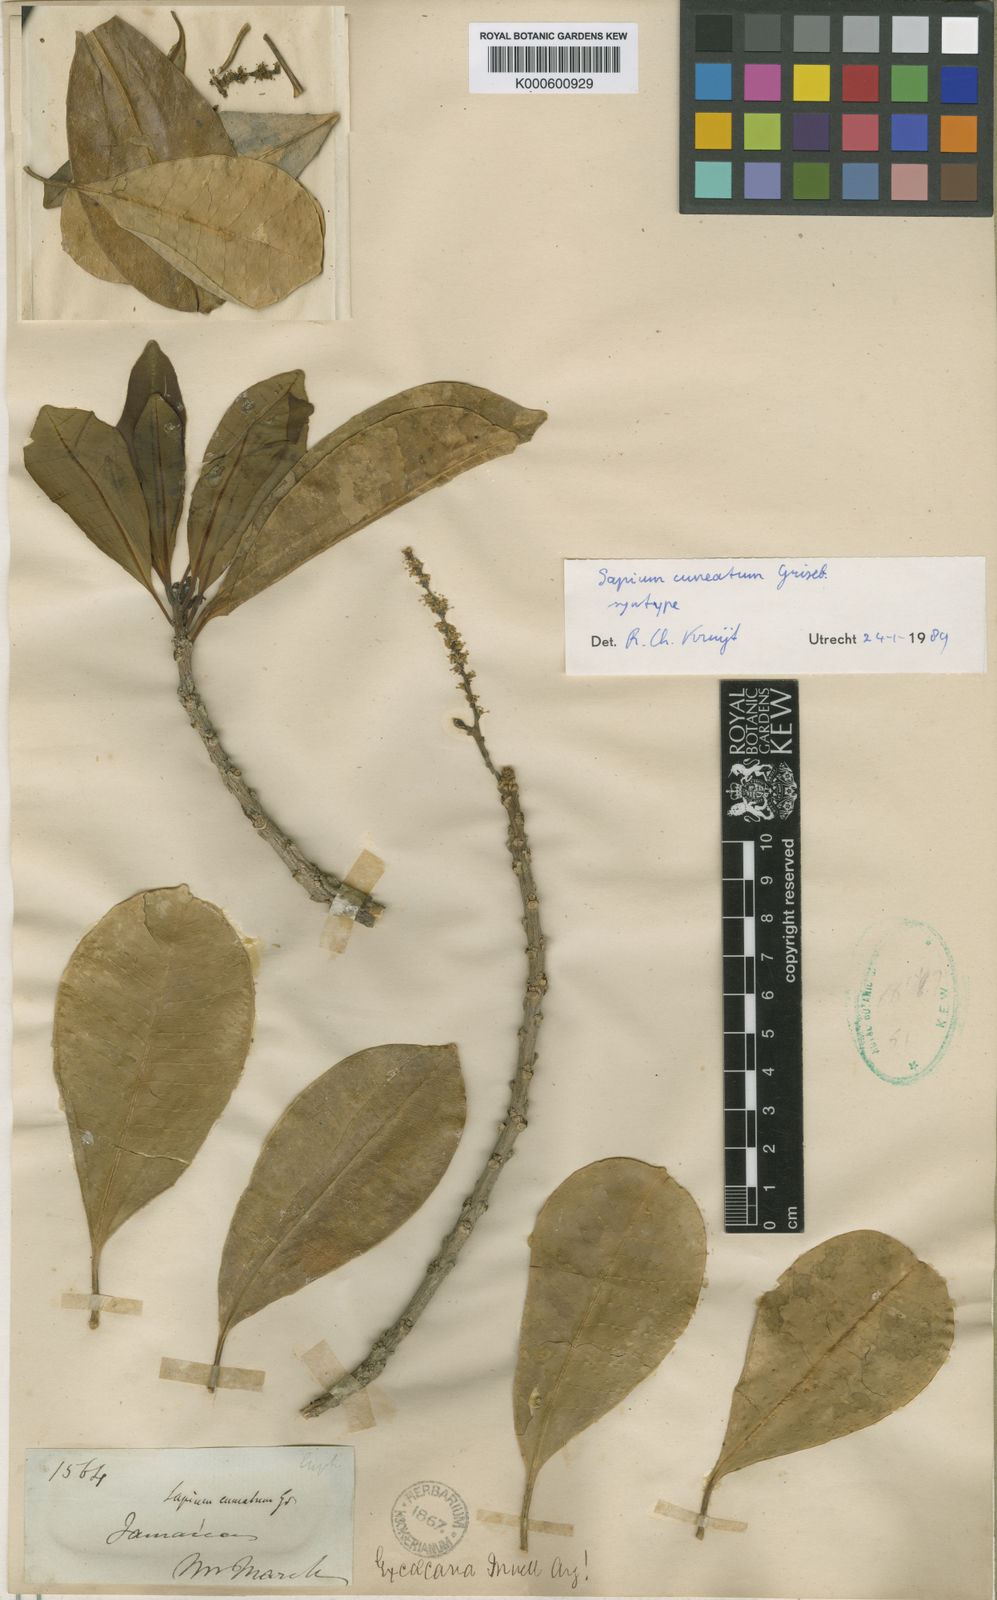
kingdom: Plantae
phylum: Tracheophyta
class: Magnoliopsida
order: Malpighiales
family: Euphorbiaceae
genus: Sapium
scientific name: Sapium cuneatum
